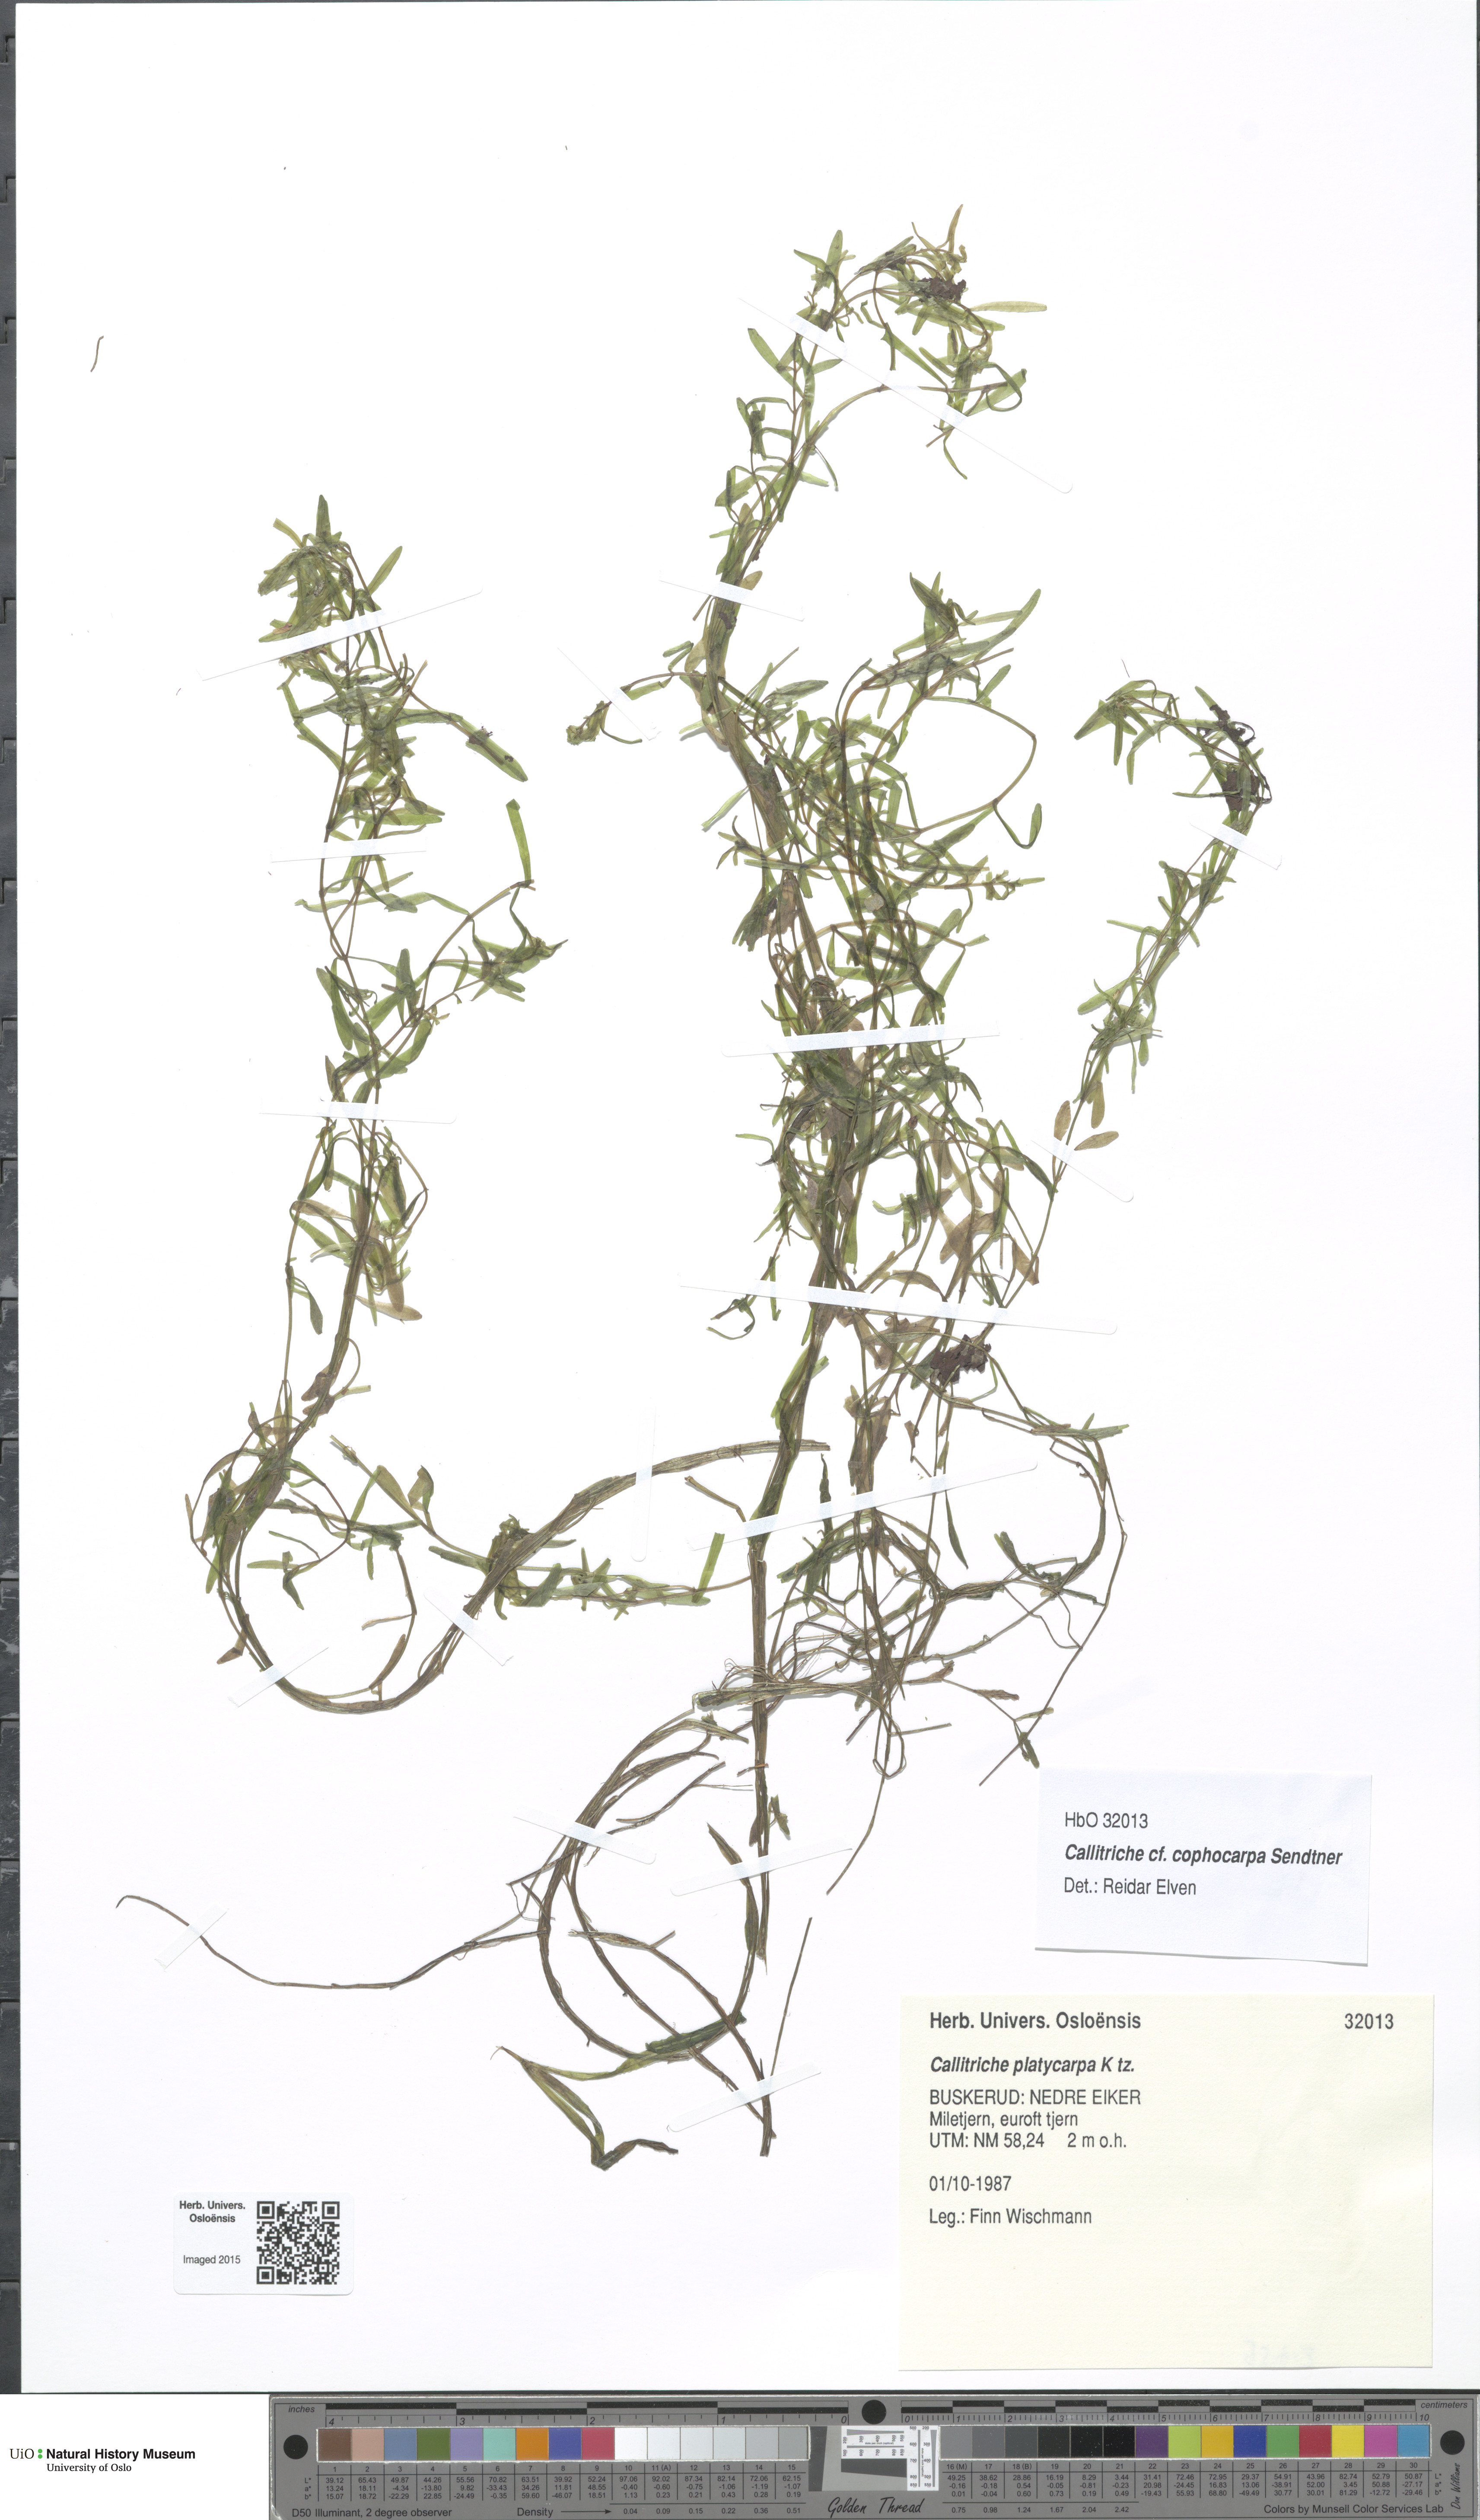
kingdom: Plantae
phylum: Tracheophyta
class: Magnoliopsida
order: Lamiales
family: Plantaginaceae
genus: Callitriche
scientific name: Callitriche cophocarpa
